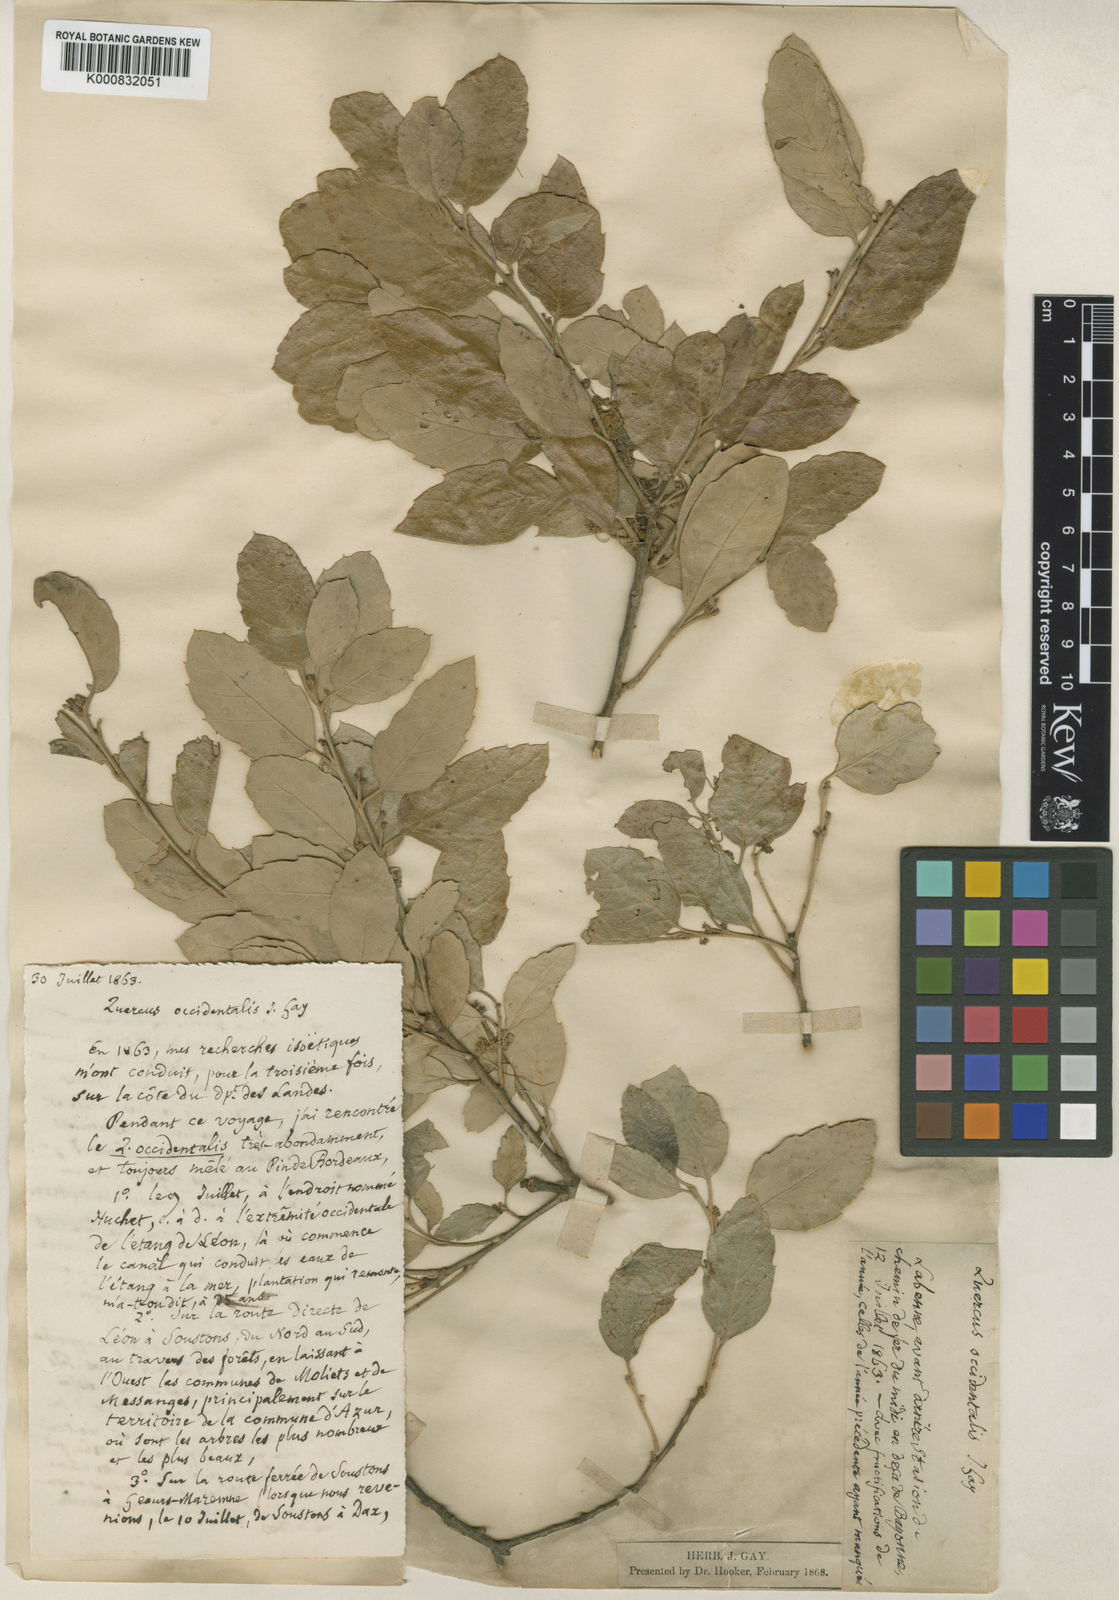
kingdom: Plantae
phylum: Tracheophyta
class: Magnoliopsida
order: Fagales
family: Fagaceae
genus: Quercus
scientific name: Quercus suber
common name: Cork oak
